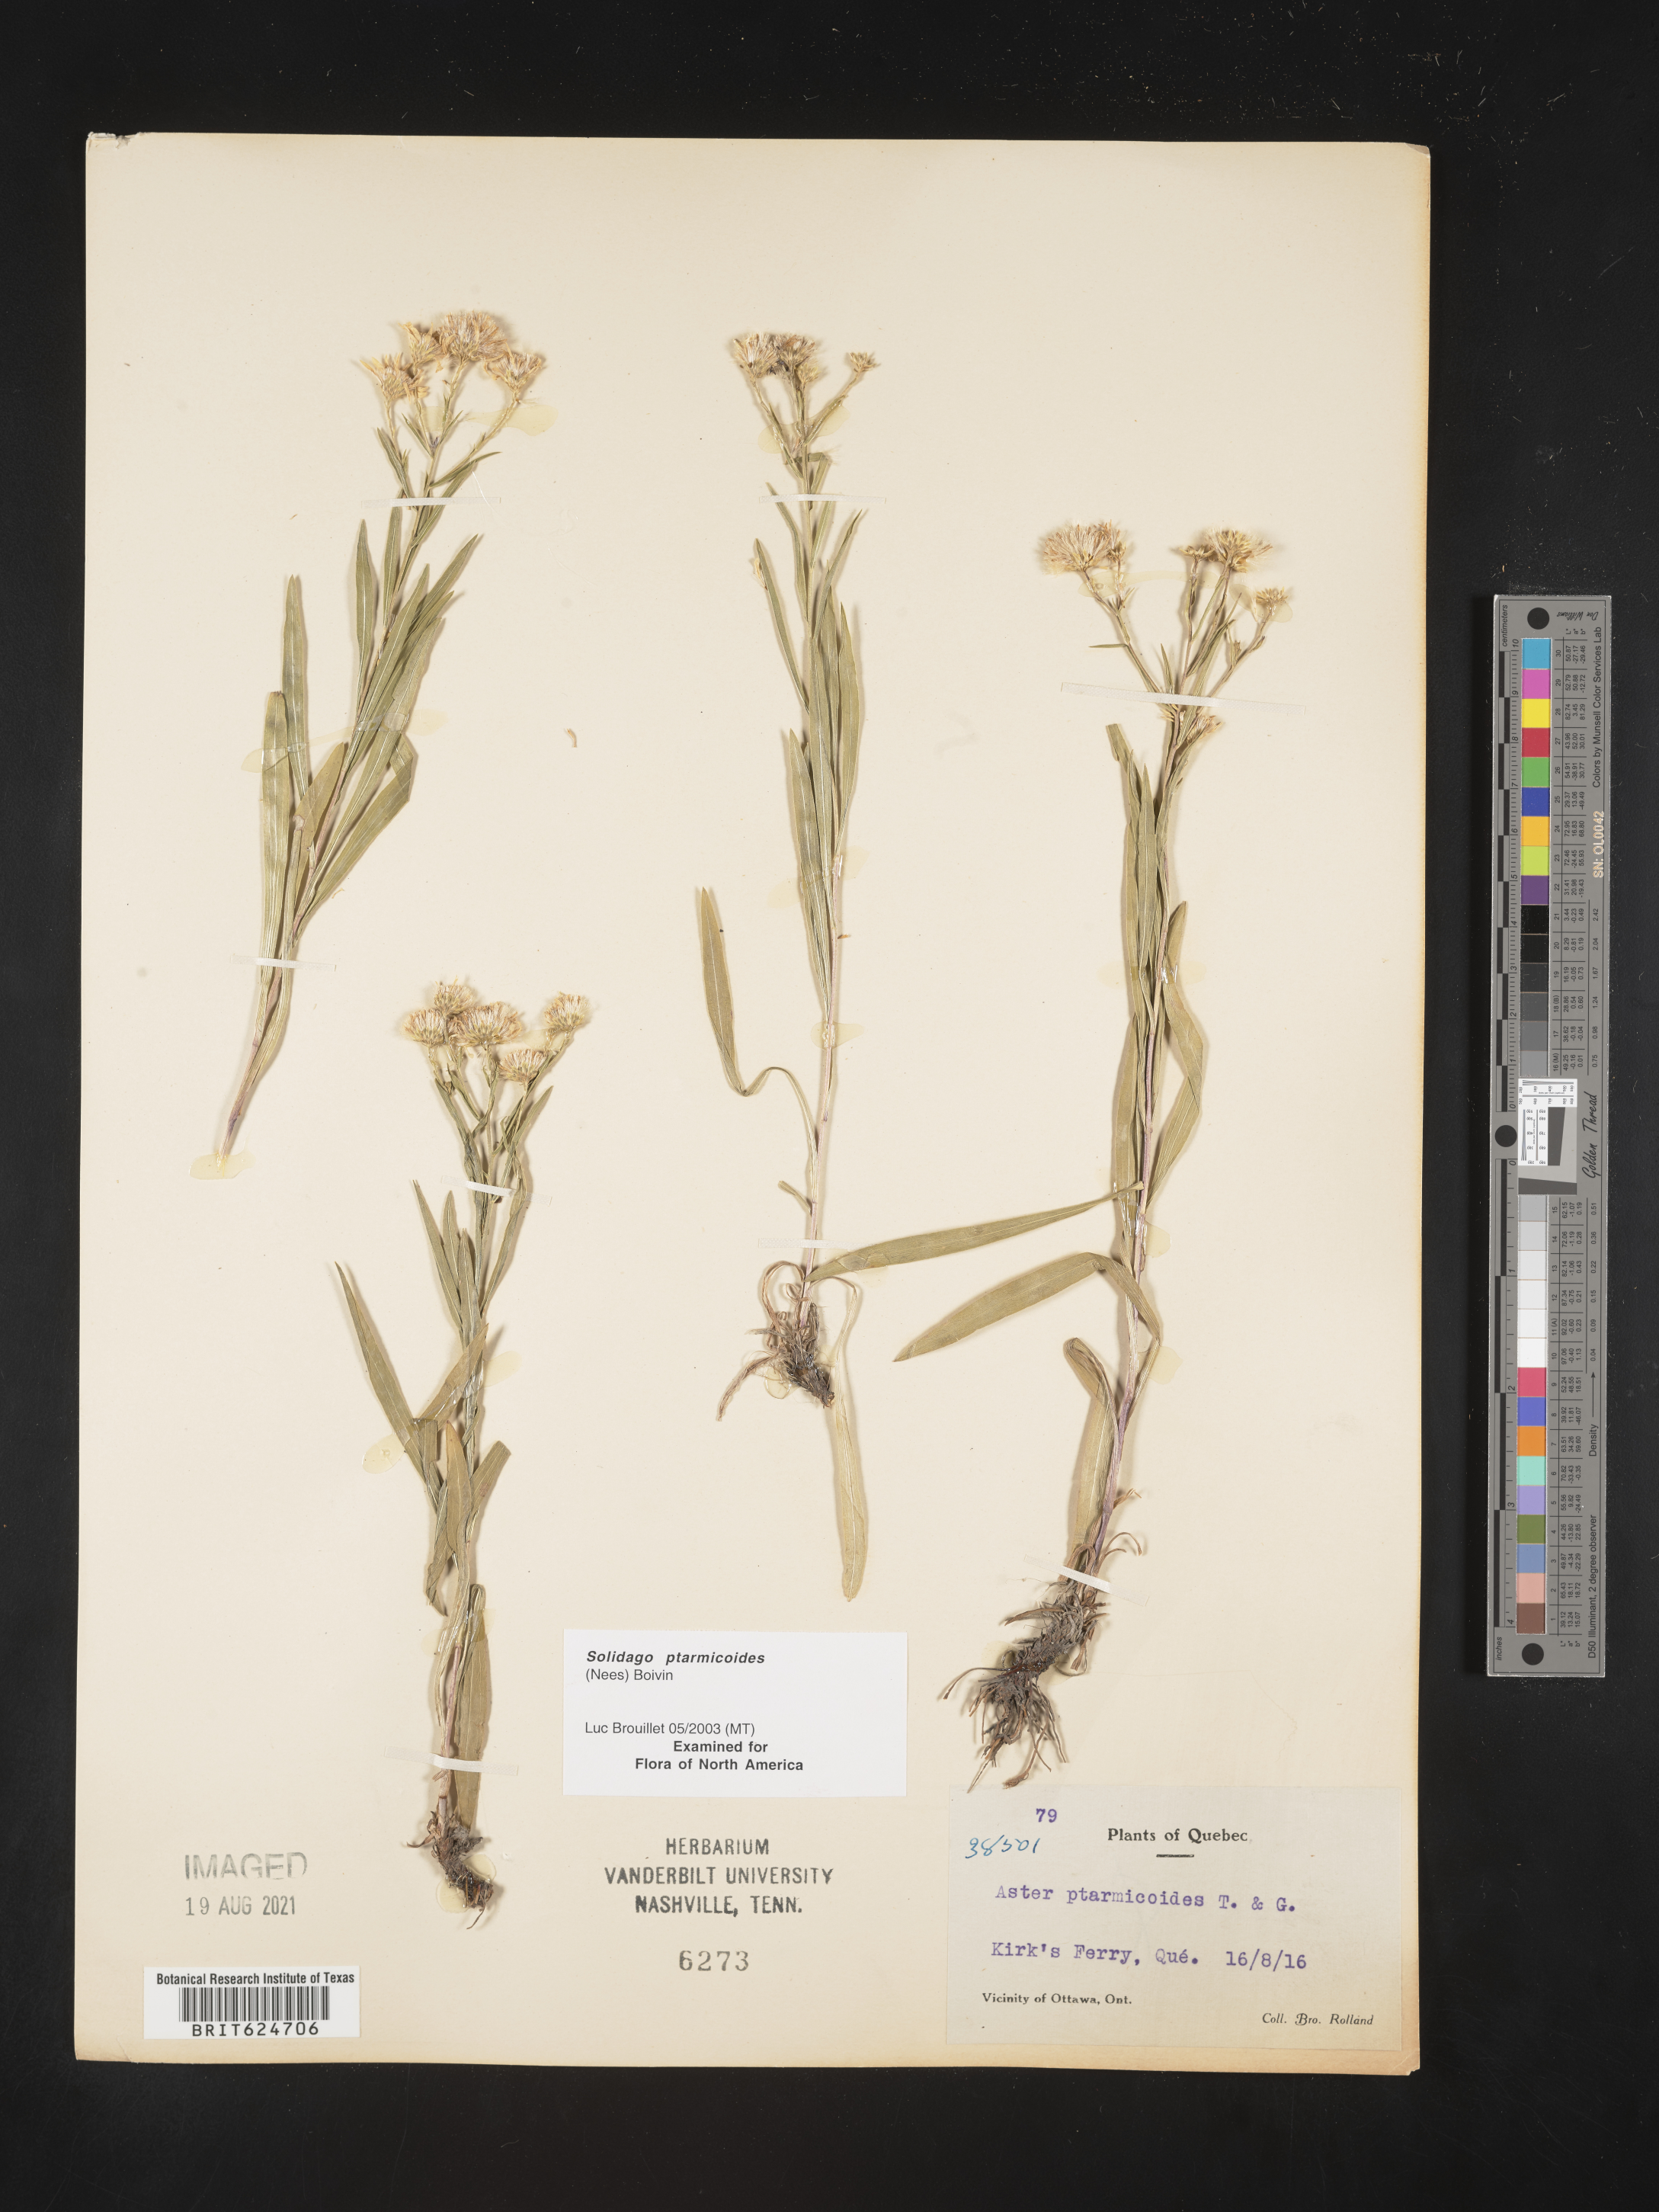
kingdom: Plantae
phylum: Tracheophyta
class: Magnoliopsida
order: Asterales
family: Asteraceae
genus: Solidago
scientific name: Solidago ptarmicoides
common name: White flat-top goldenrod
